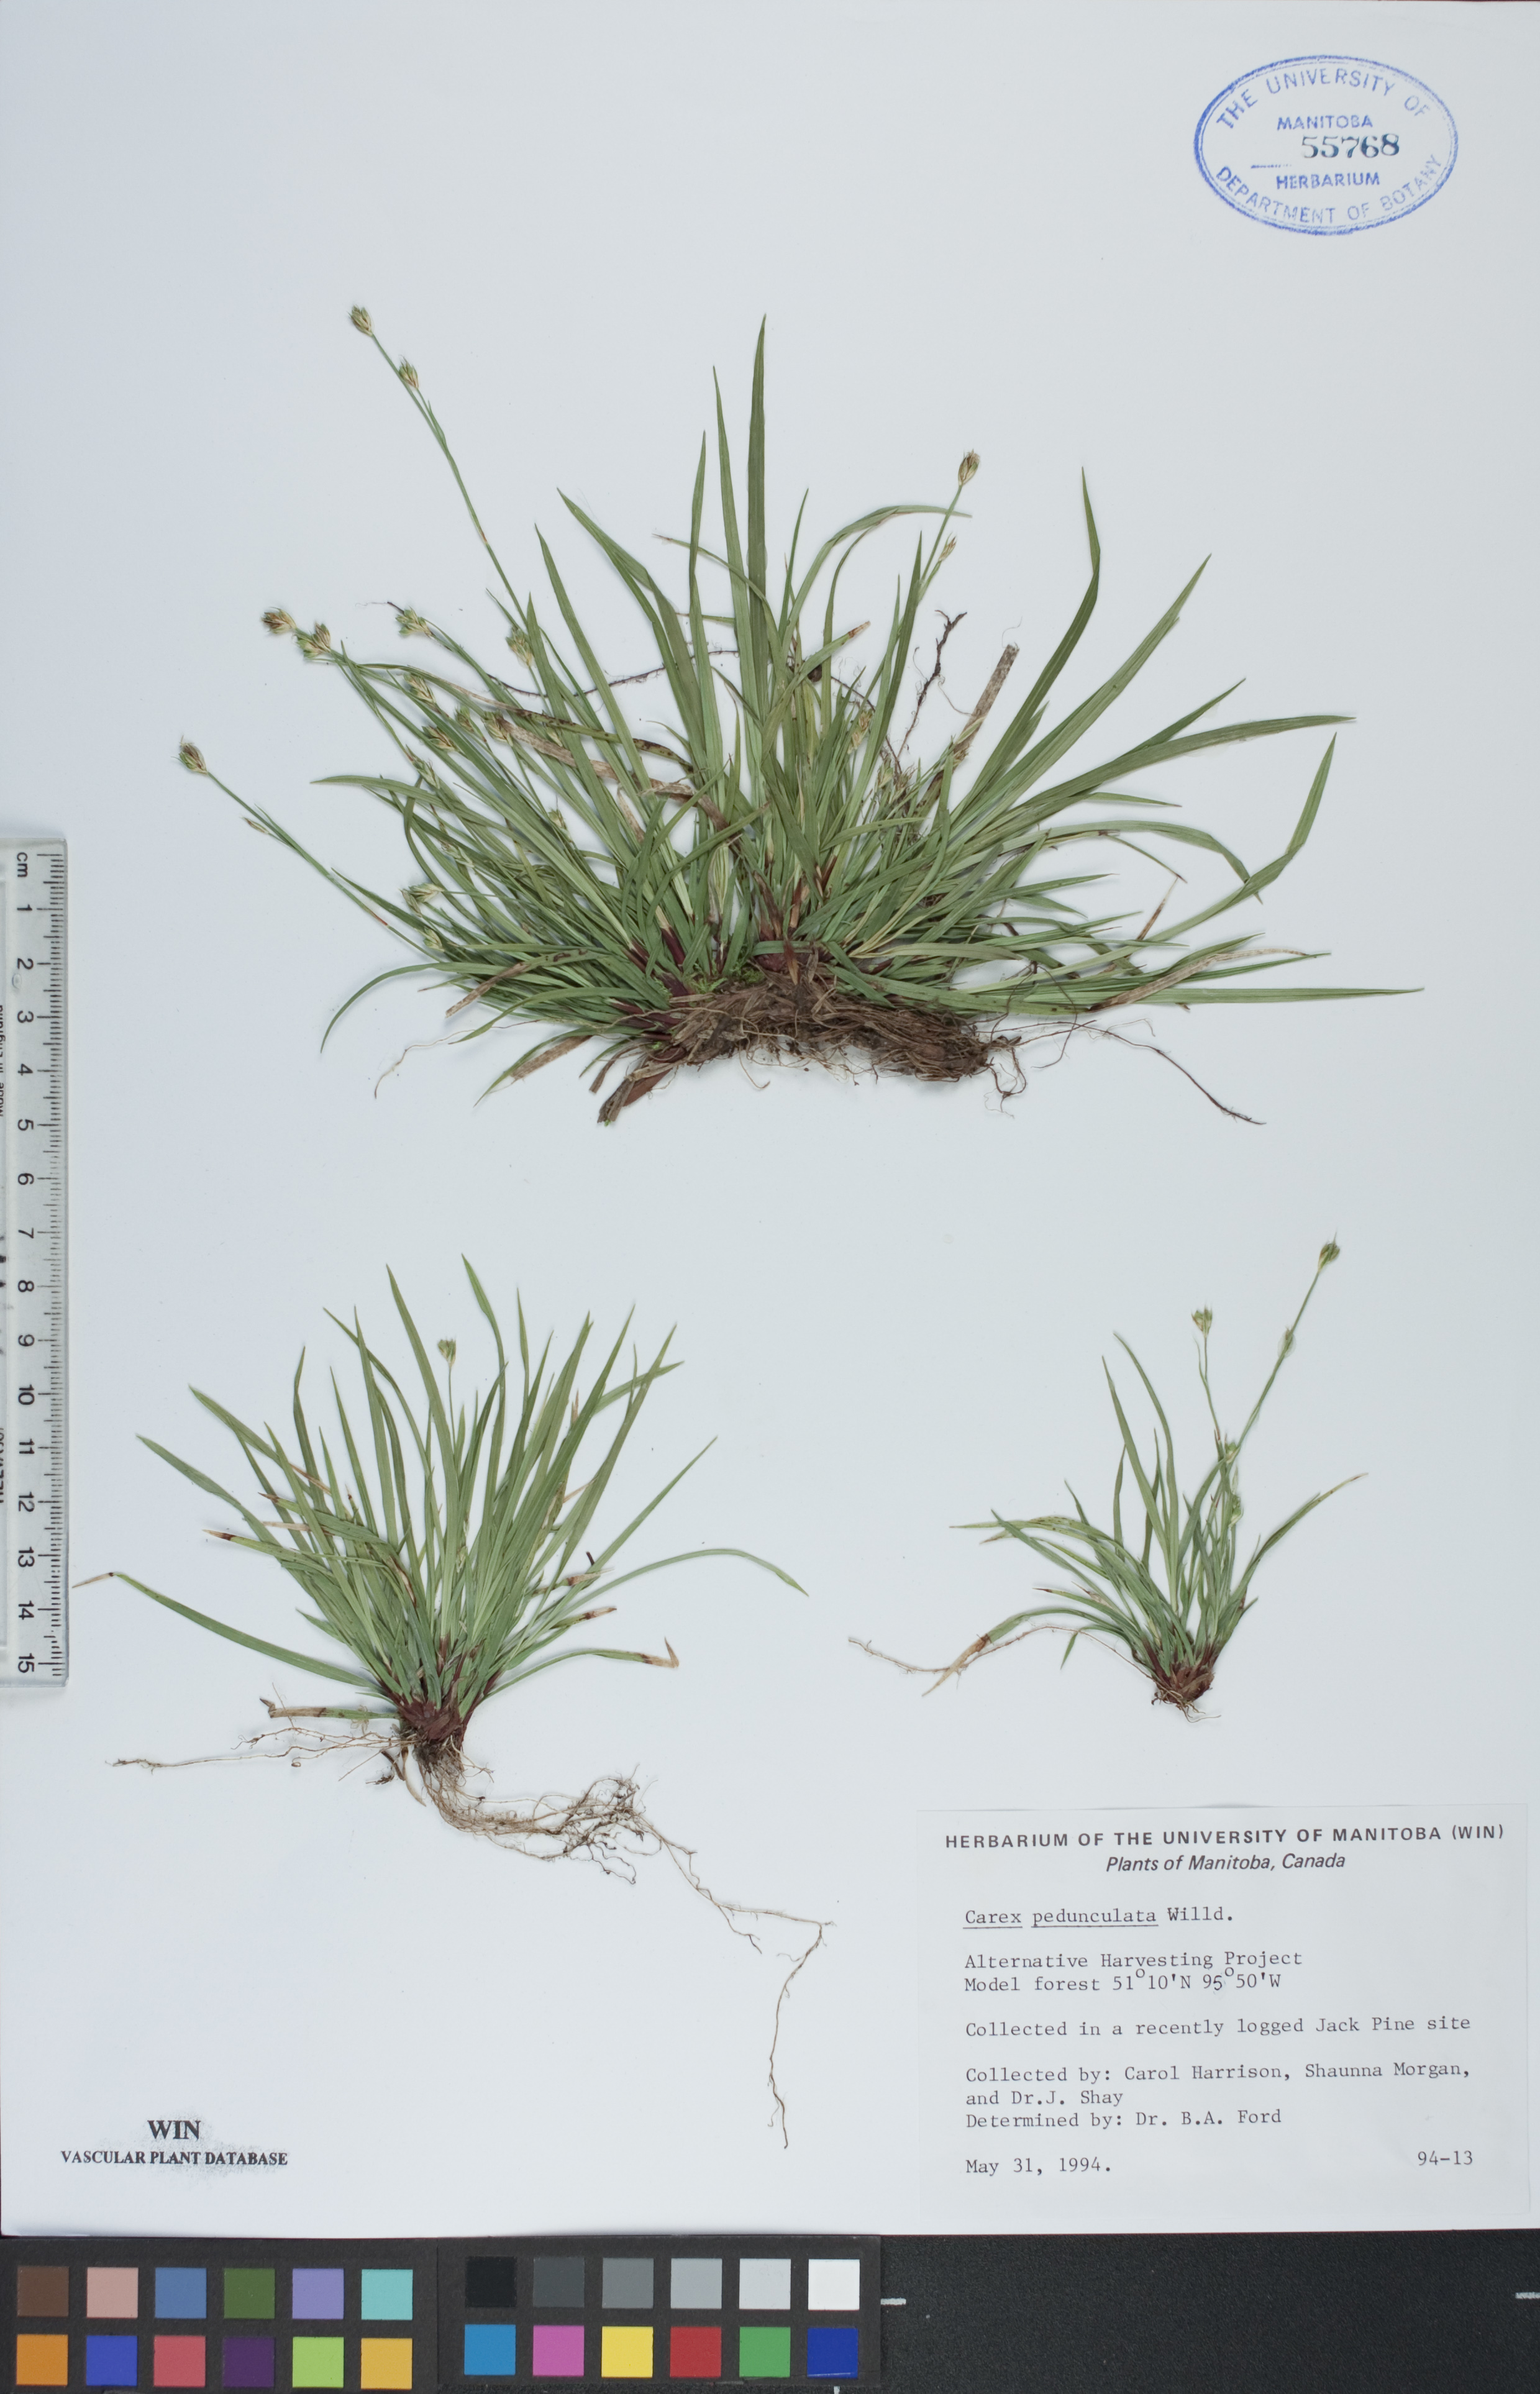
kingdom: Plantae
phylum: Tracheophyta
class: Liliopsida
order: Poales
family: Cyperaceae
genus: Carex
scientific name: Carex pedunculata
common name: Pedunculate sedge
